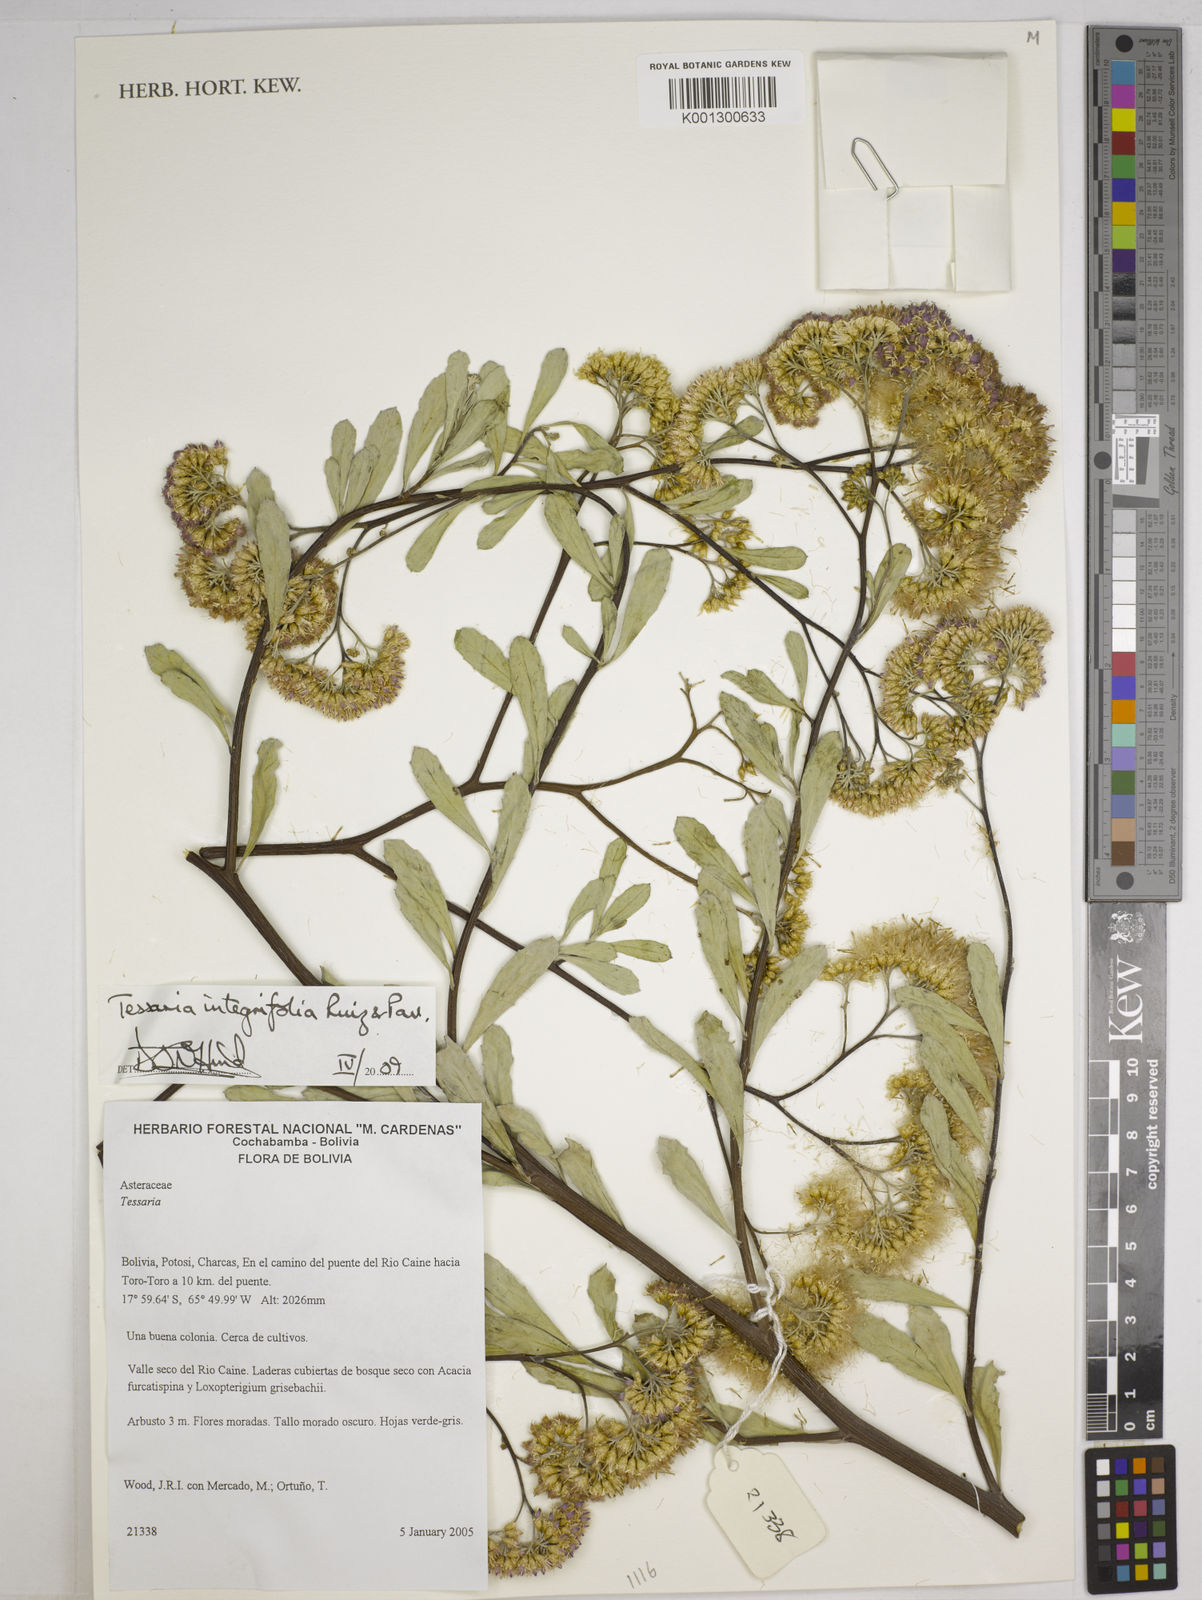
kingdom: Plantae
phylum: Tracheophyta
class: Magnoliopsida
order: Asterales
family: Asteraceae
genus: Tessaria
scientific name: Tessaria integrifolia
